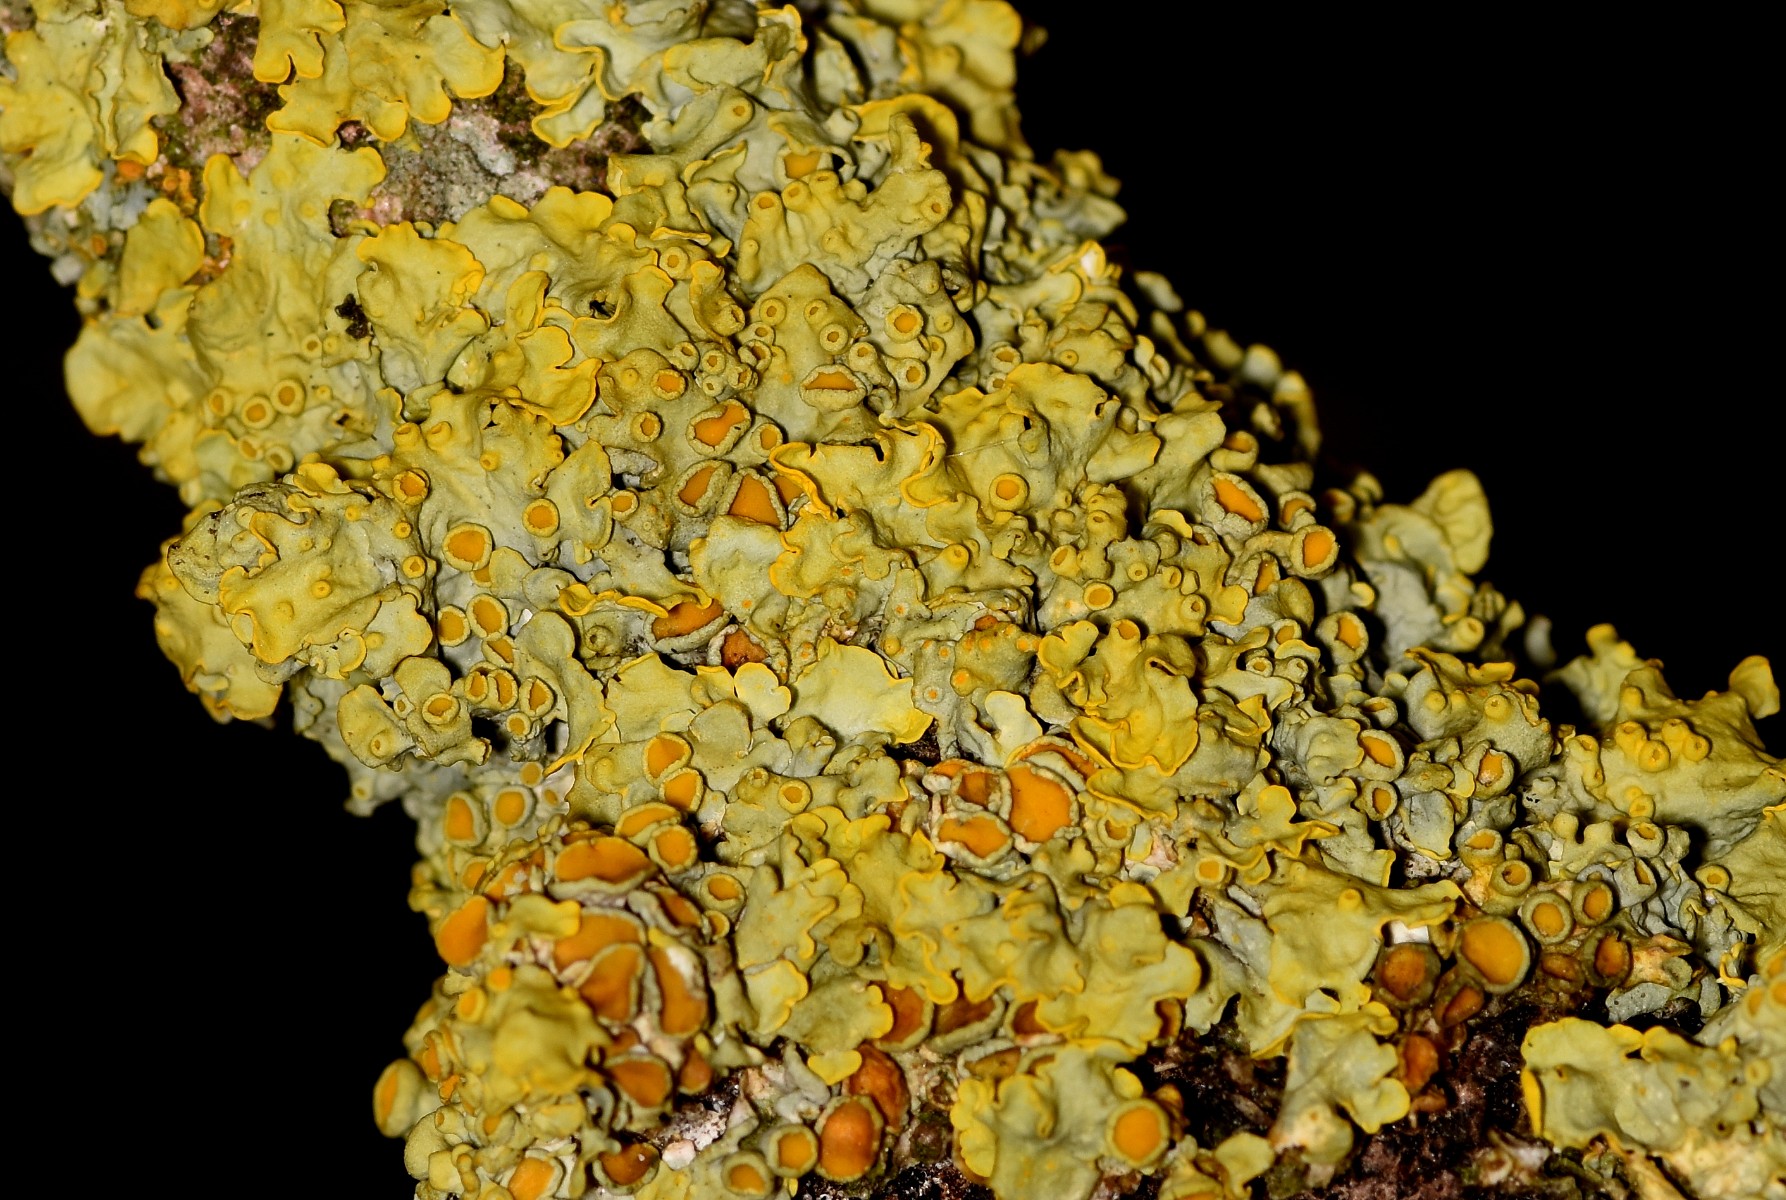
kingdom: Fungi
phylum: Ascomycota
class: Lecanoromycetes
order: Teloschistales
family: Teloschistaceae
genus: Xanthoria
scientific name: Xanthoria parietina
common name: almindelig væggelav
